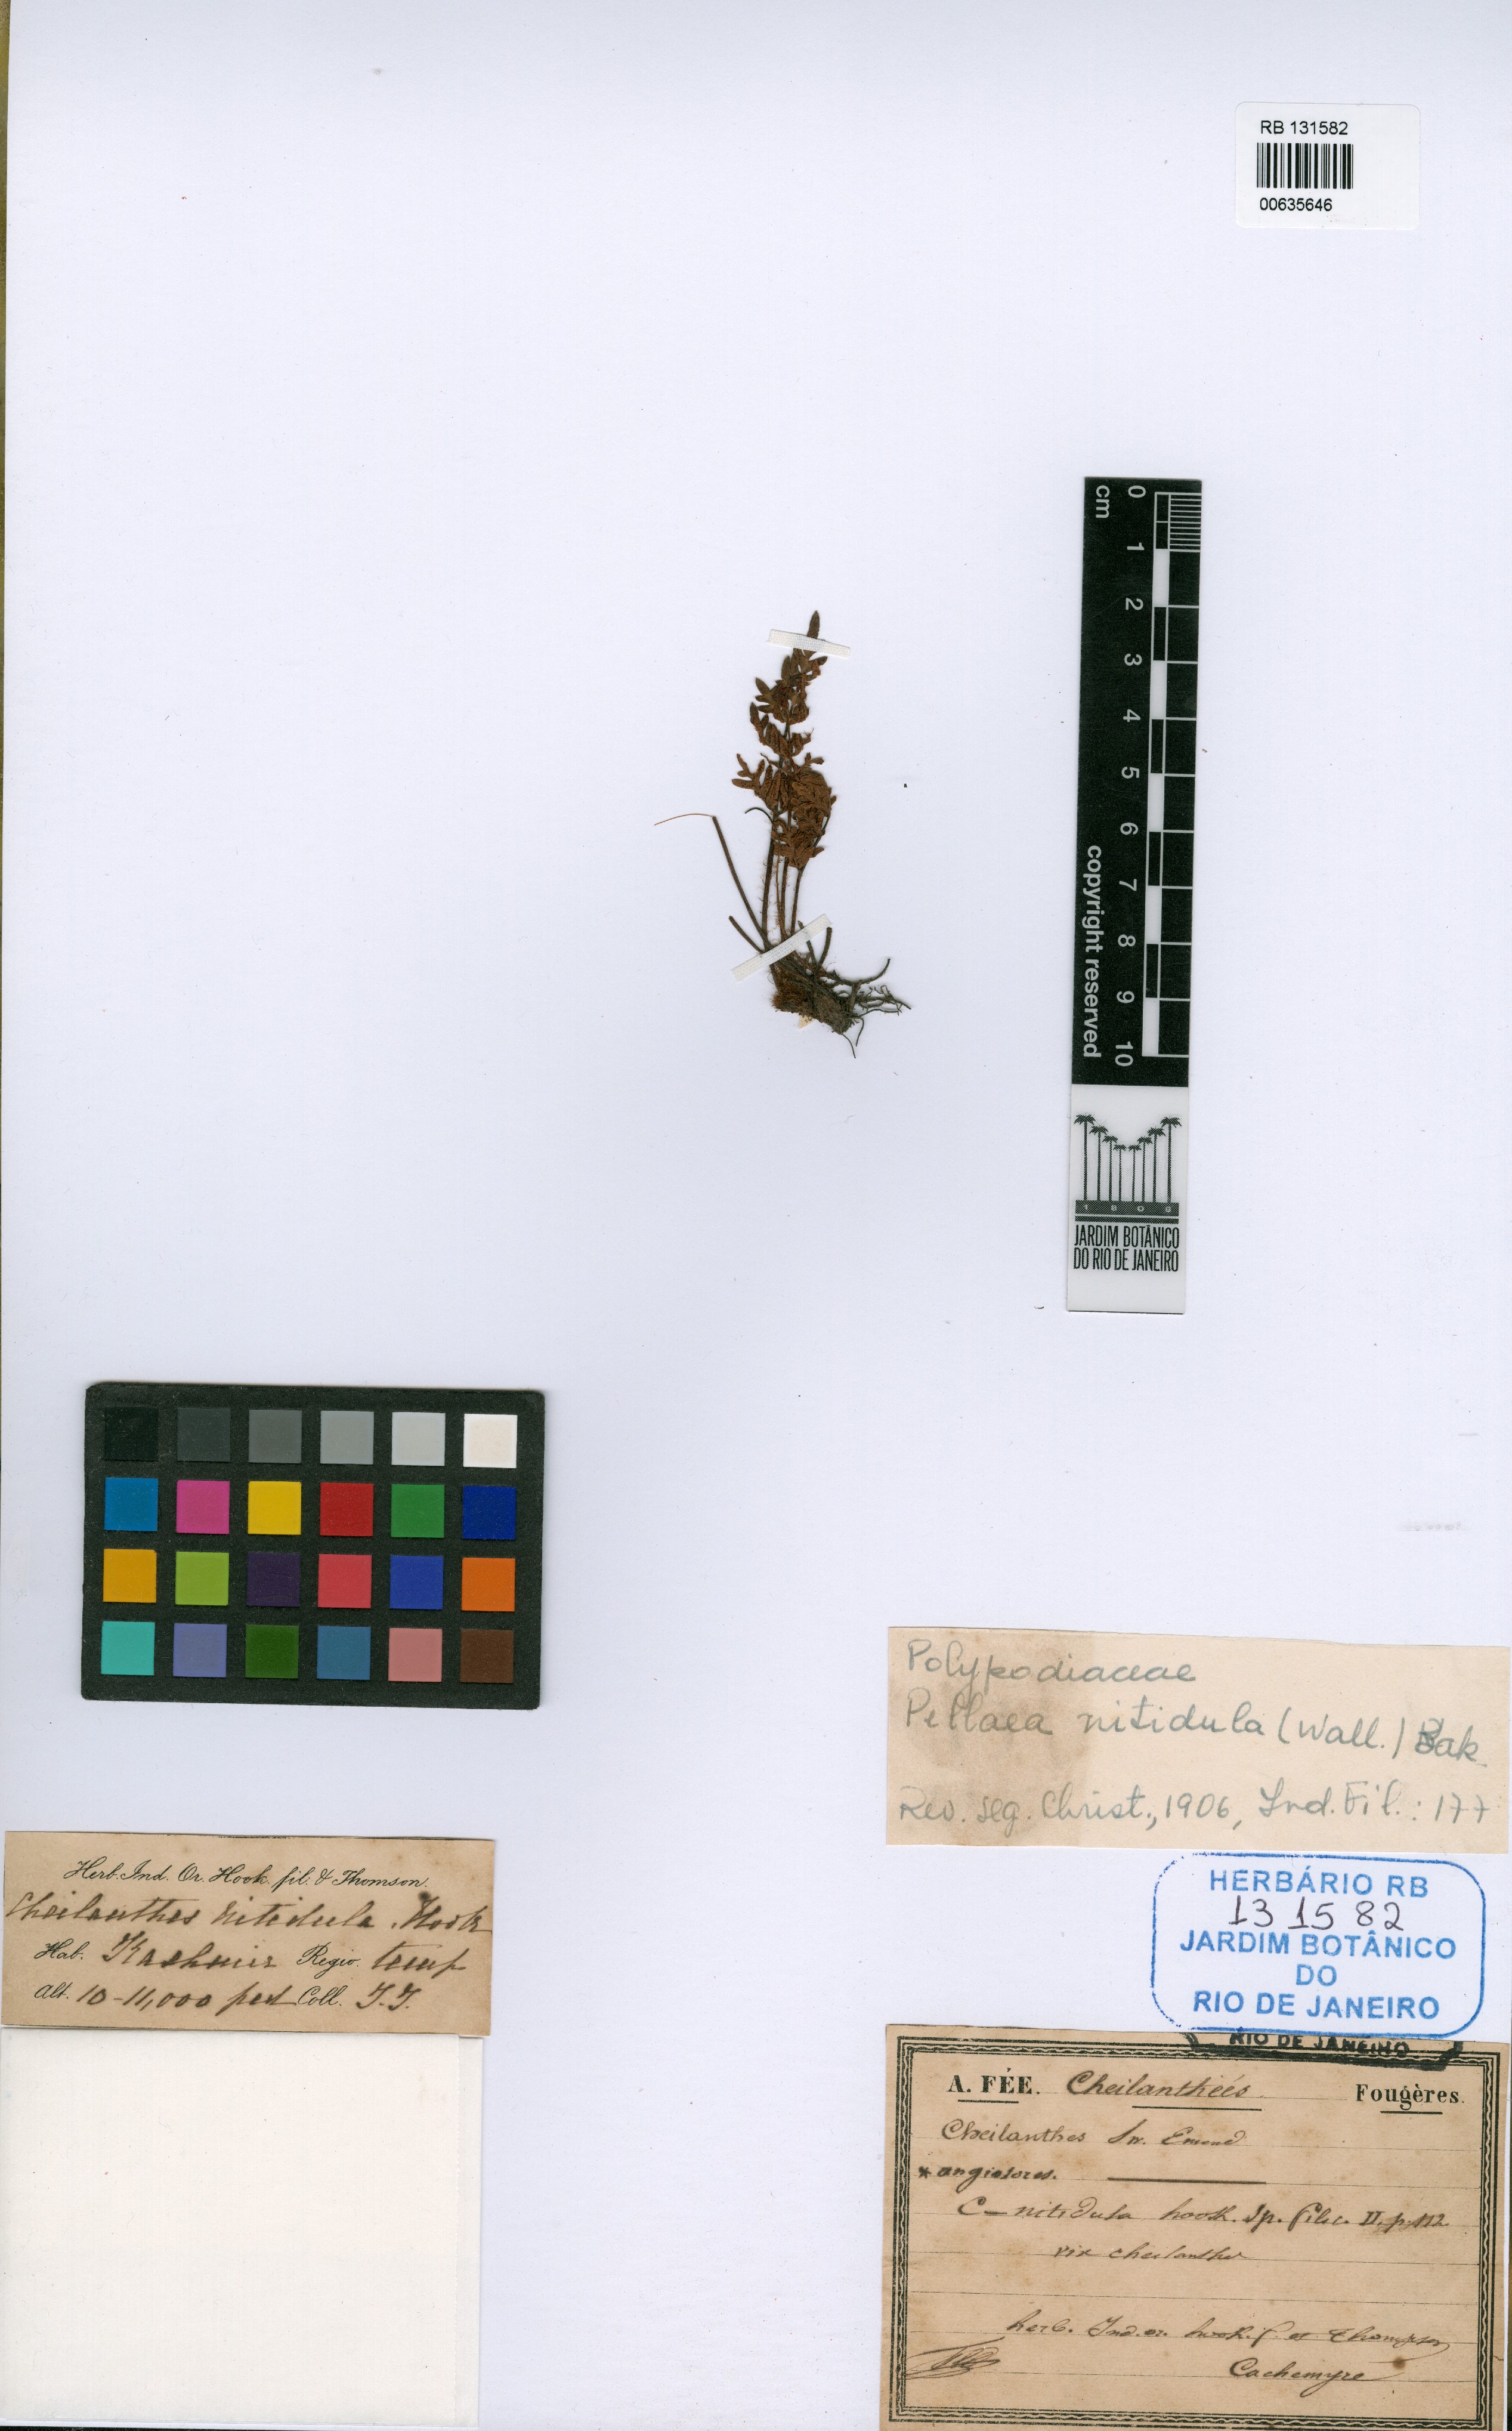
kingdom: Plantae
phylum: Tracheophyta
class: Polypodiopsida
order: Polypodiales
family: Pteridaceae
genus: Mildella
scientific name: Mildella nitidula
